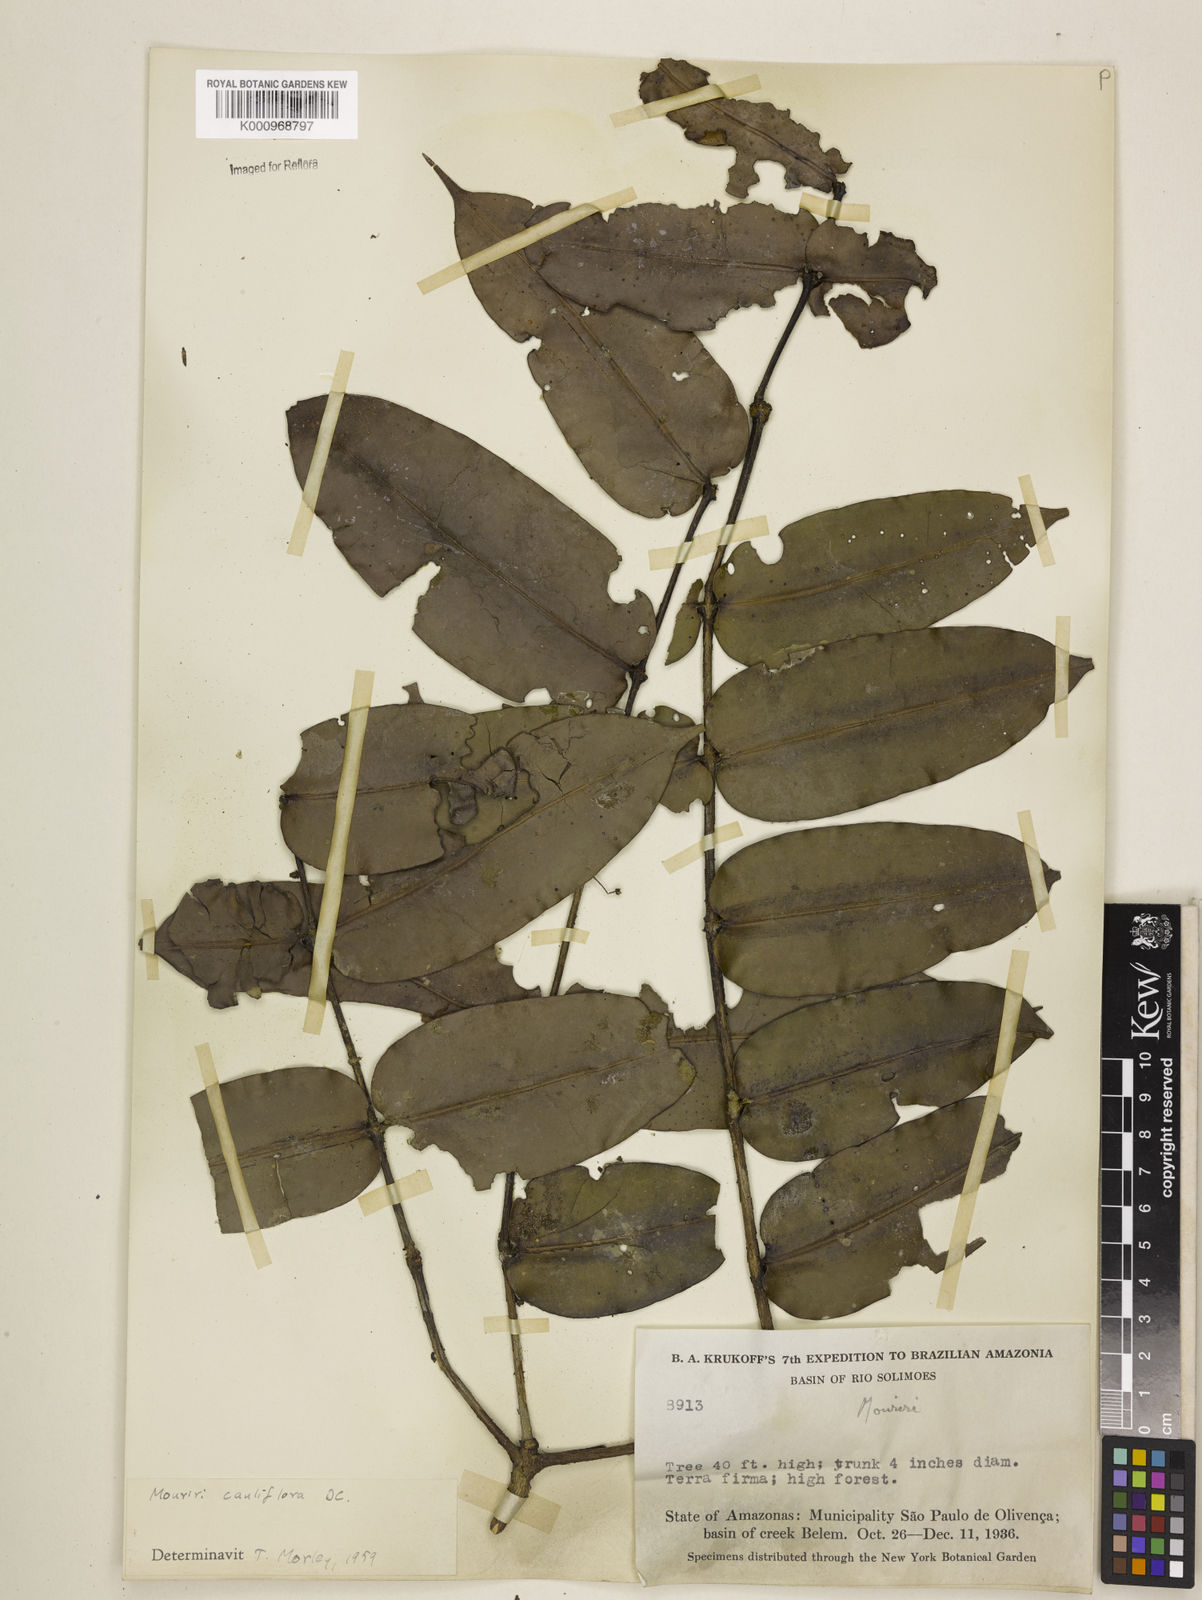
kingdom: Plantae
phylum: Tracheophyta
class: Magnoliopsida
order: Myrtales
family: Melastomataceae
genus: Mouriri
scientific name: Mouriri cauliflora
